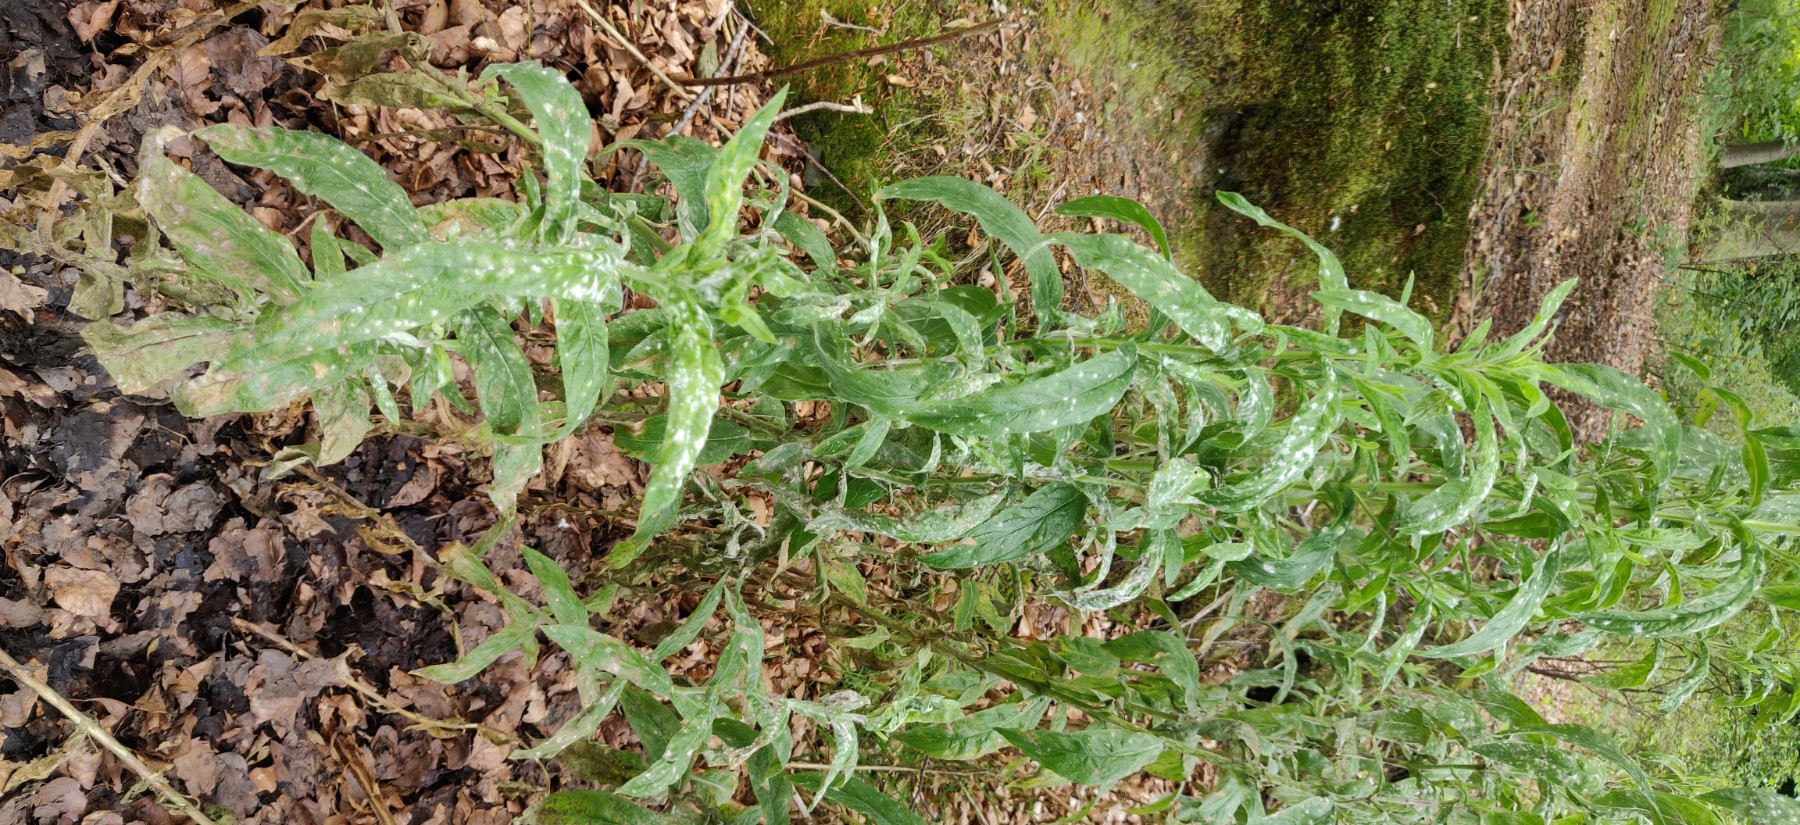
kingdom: Fungi
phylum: Ascomycota
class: Leotiomycetes
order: Helotiales
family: Erysiphaceae
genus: Podosphaera
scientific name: Podosphaera epilobii
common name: dueurt-meldug
